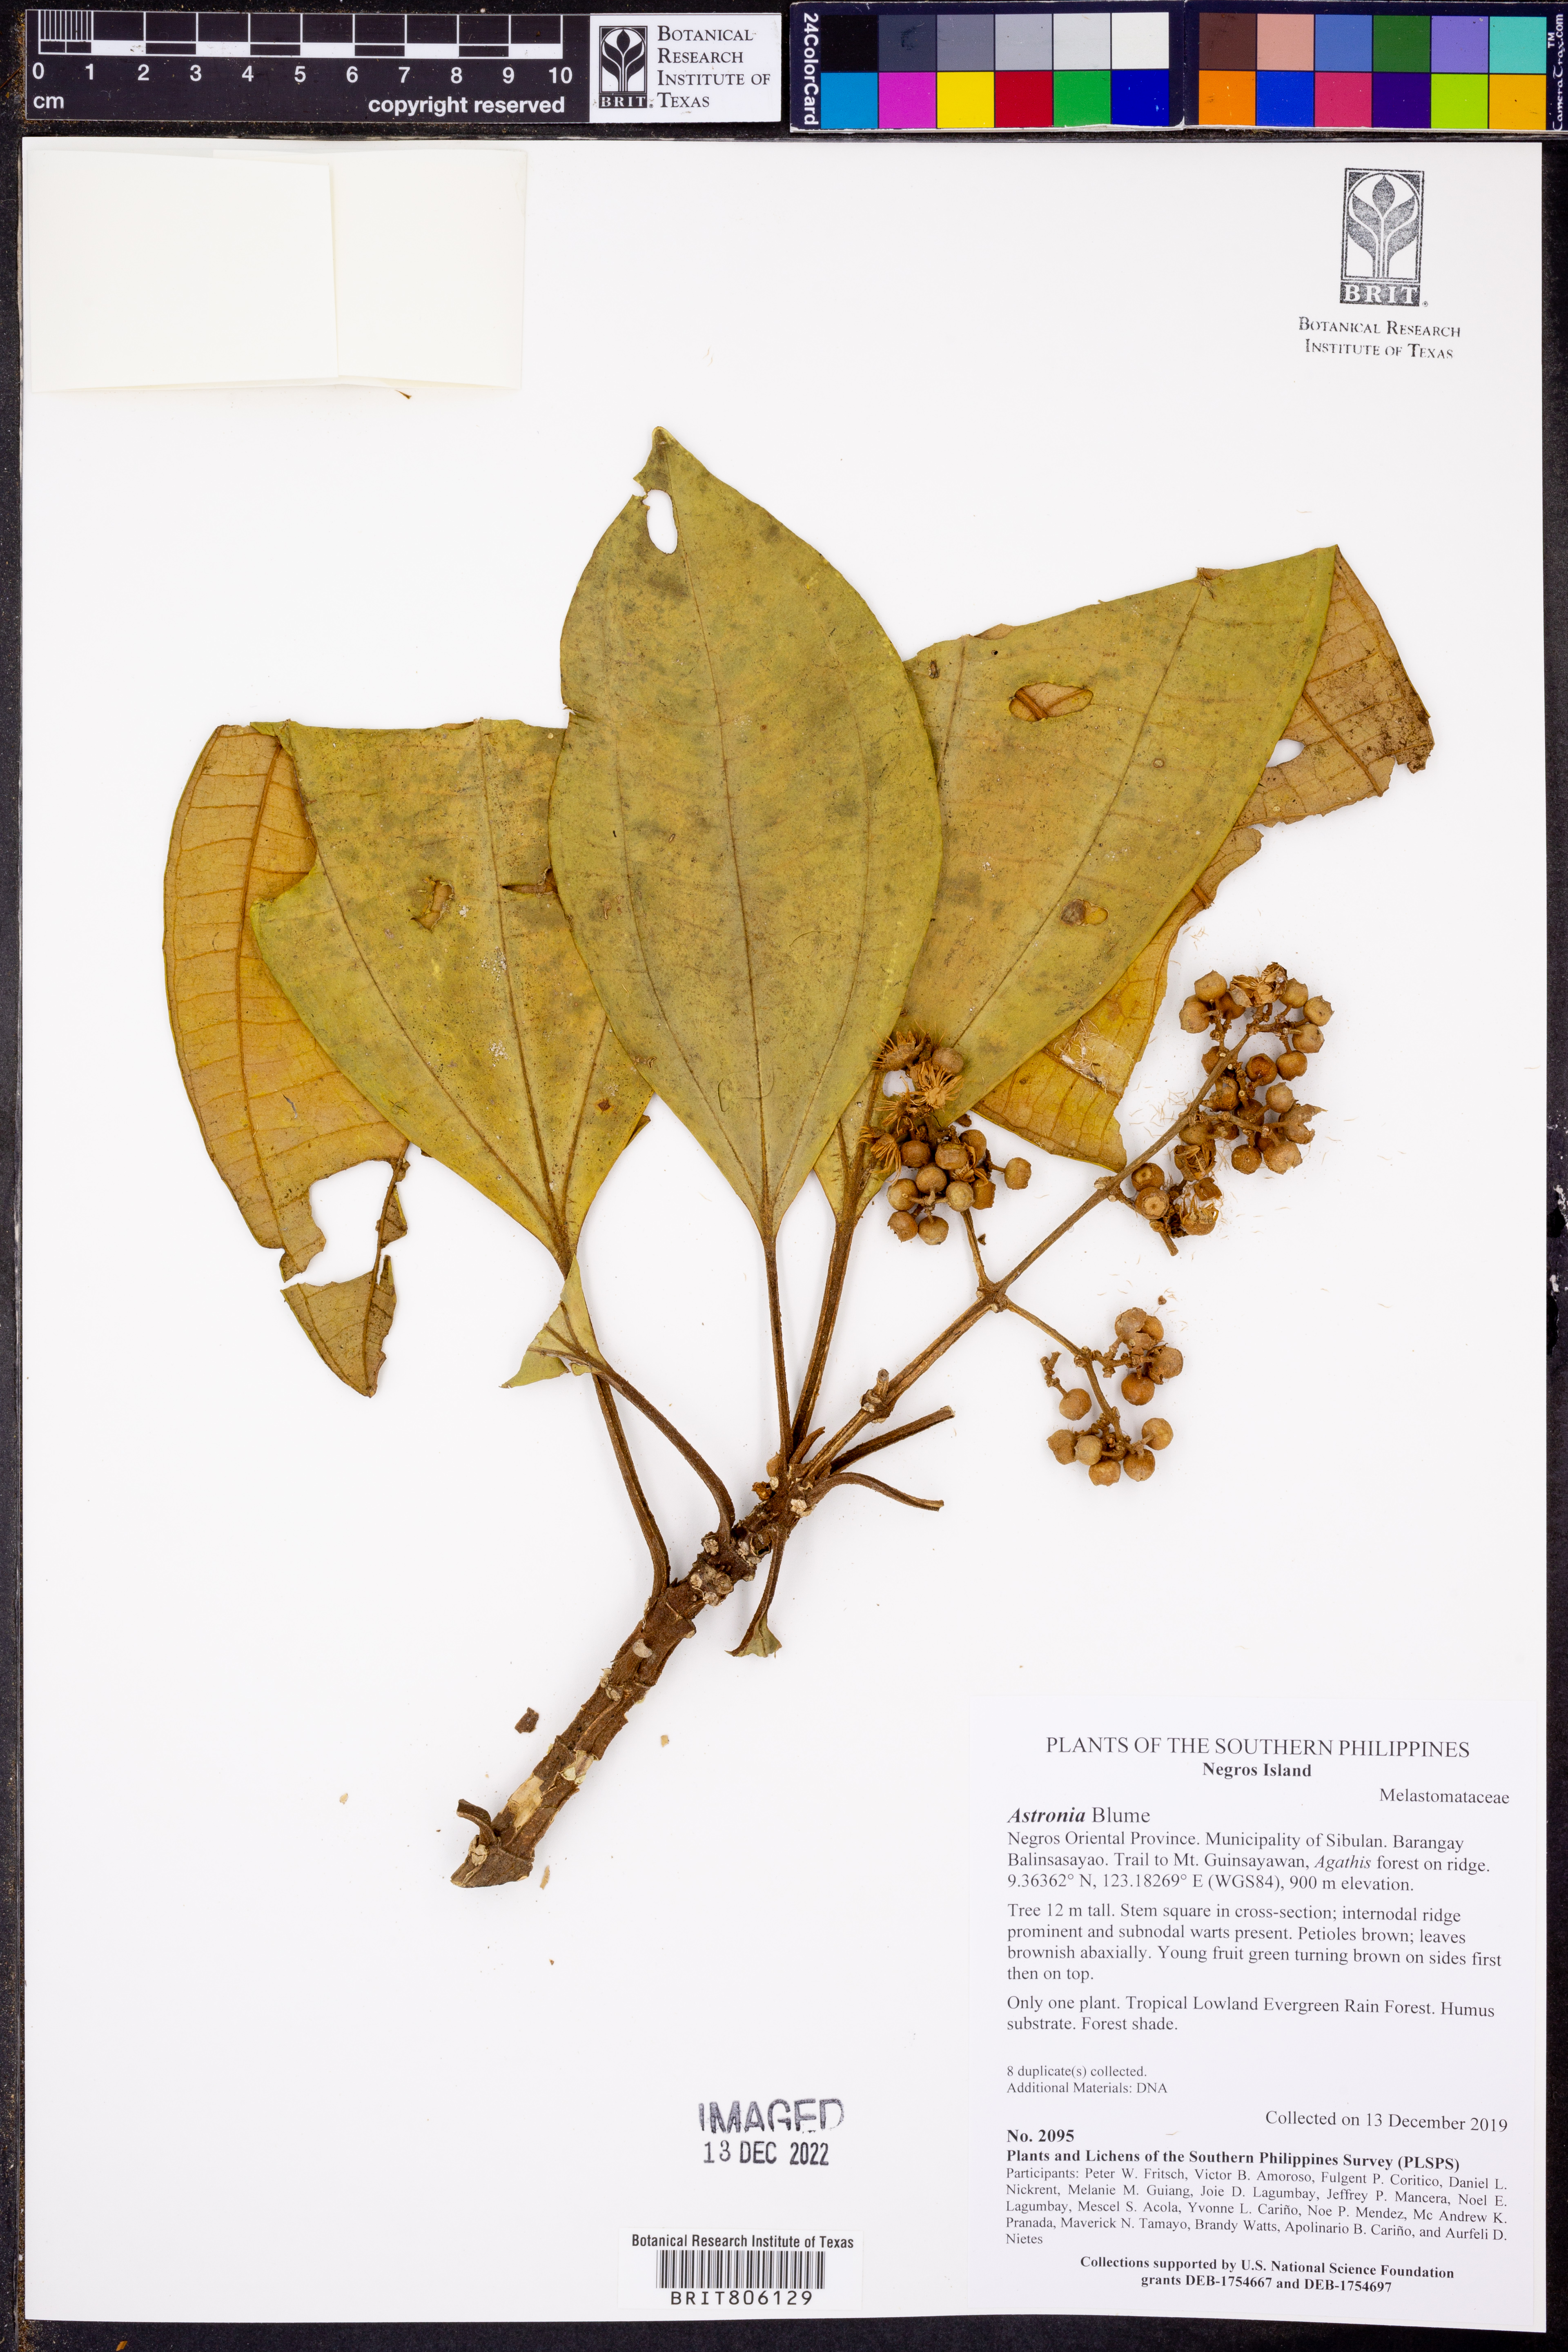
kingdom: Plantae
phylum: Tracheophyta
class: Magnoliopsida
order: Myrtales
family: Melastomataceae
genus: Astronia
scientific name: Astronia
